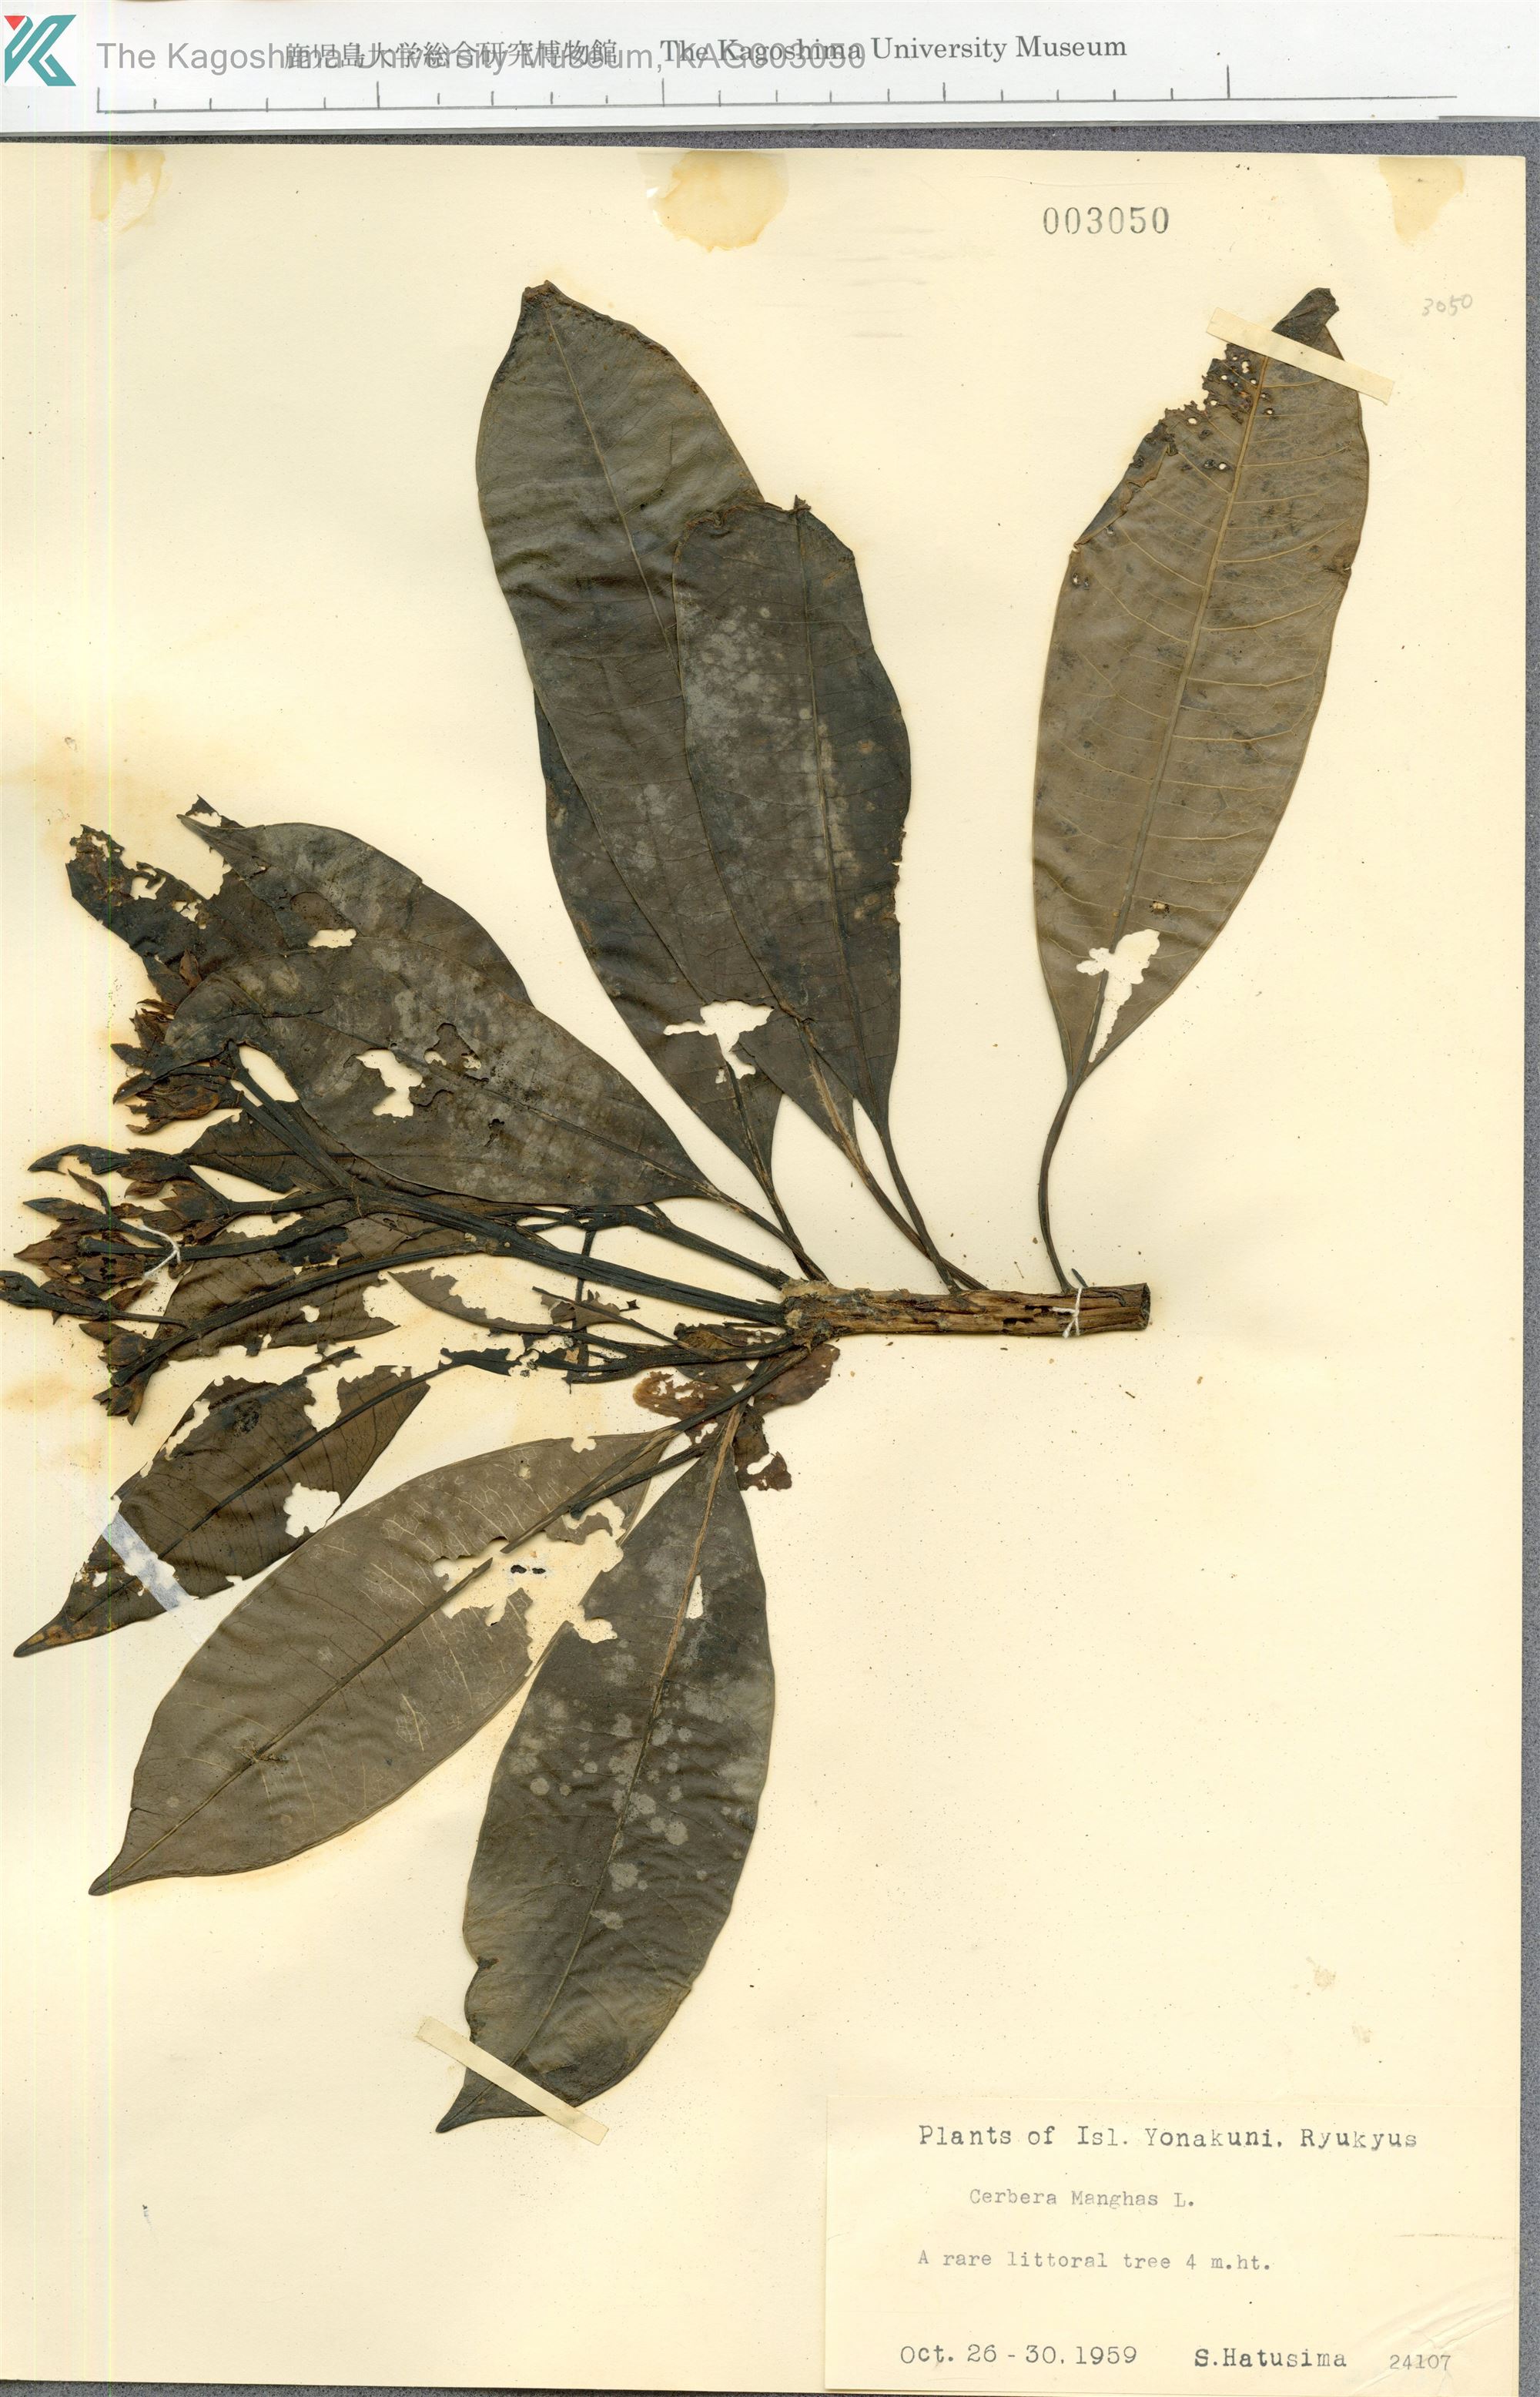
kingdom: Plantae
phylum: Tracheophyta
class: Magnoliopsida
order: Gentianales
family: Apocynaceae
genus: Cerbera
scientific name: Cerbera manghas
